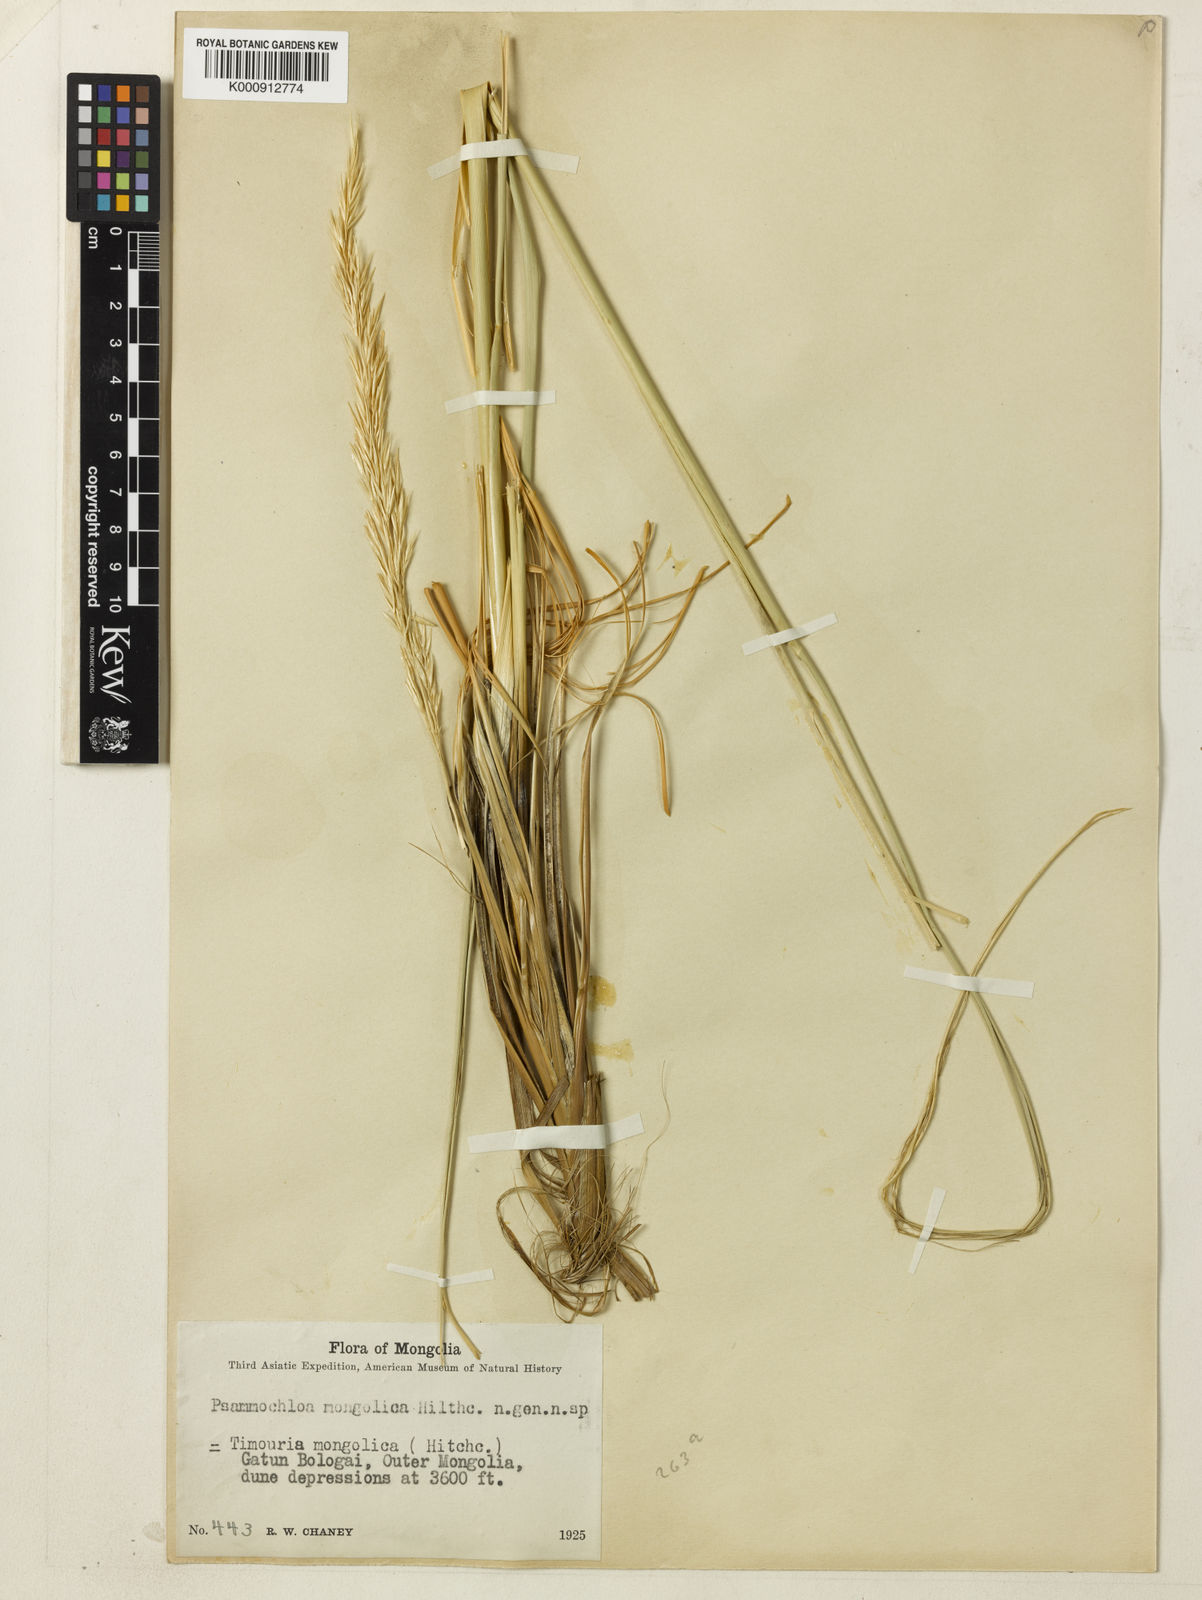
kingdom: Plantae
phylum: Tracheophyta
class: Liliopsida
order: Poales
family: Poaceae
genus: Psammochloa
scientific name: Psammochloa villosa
